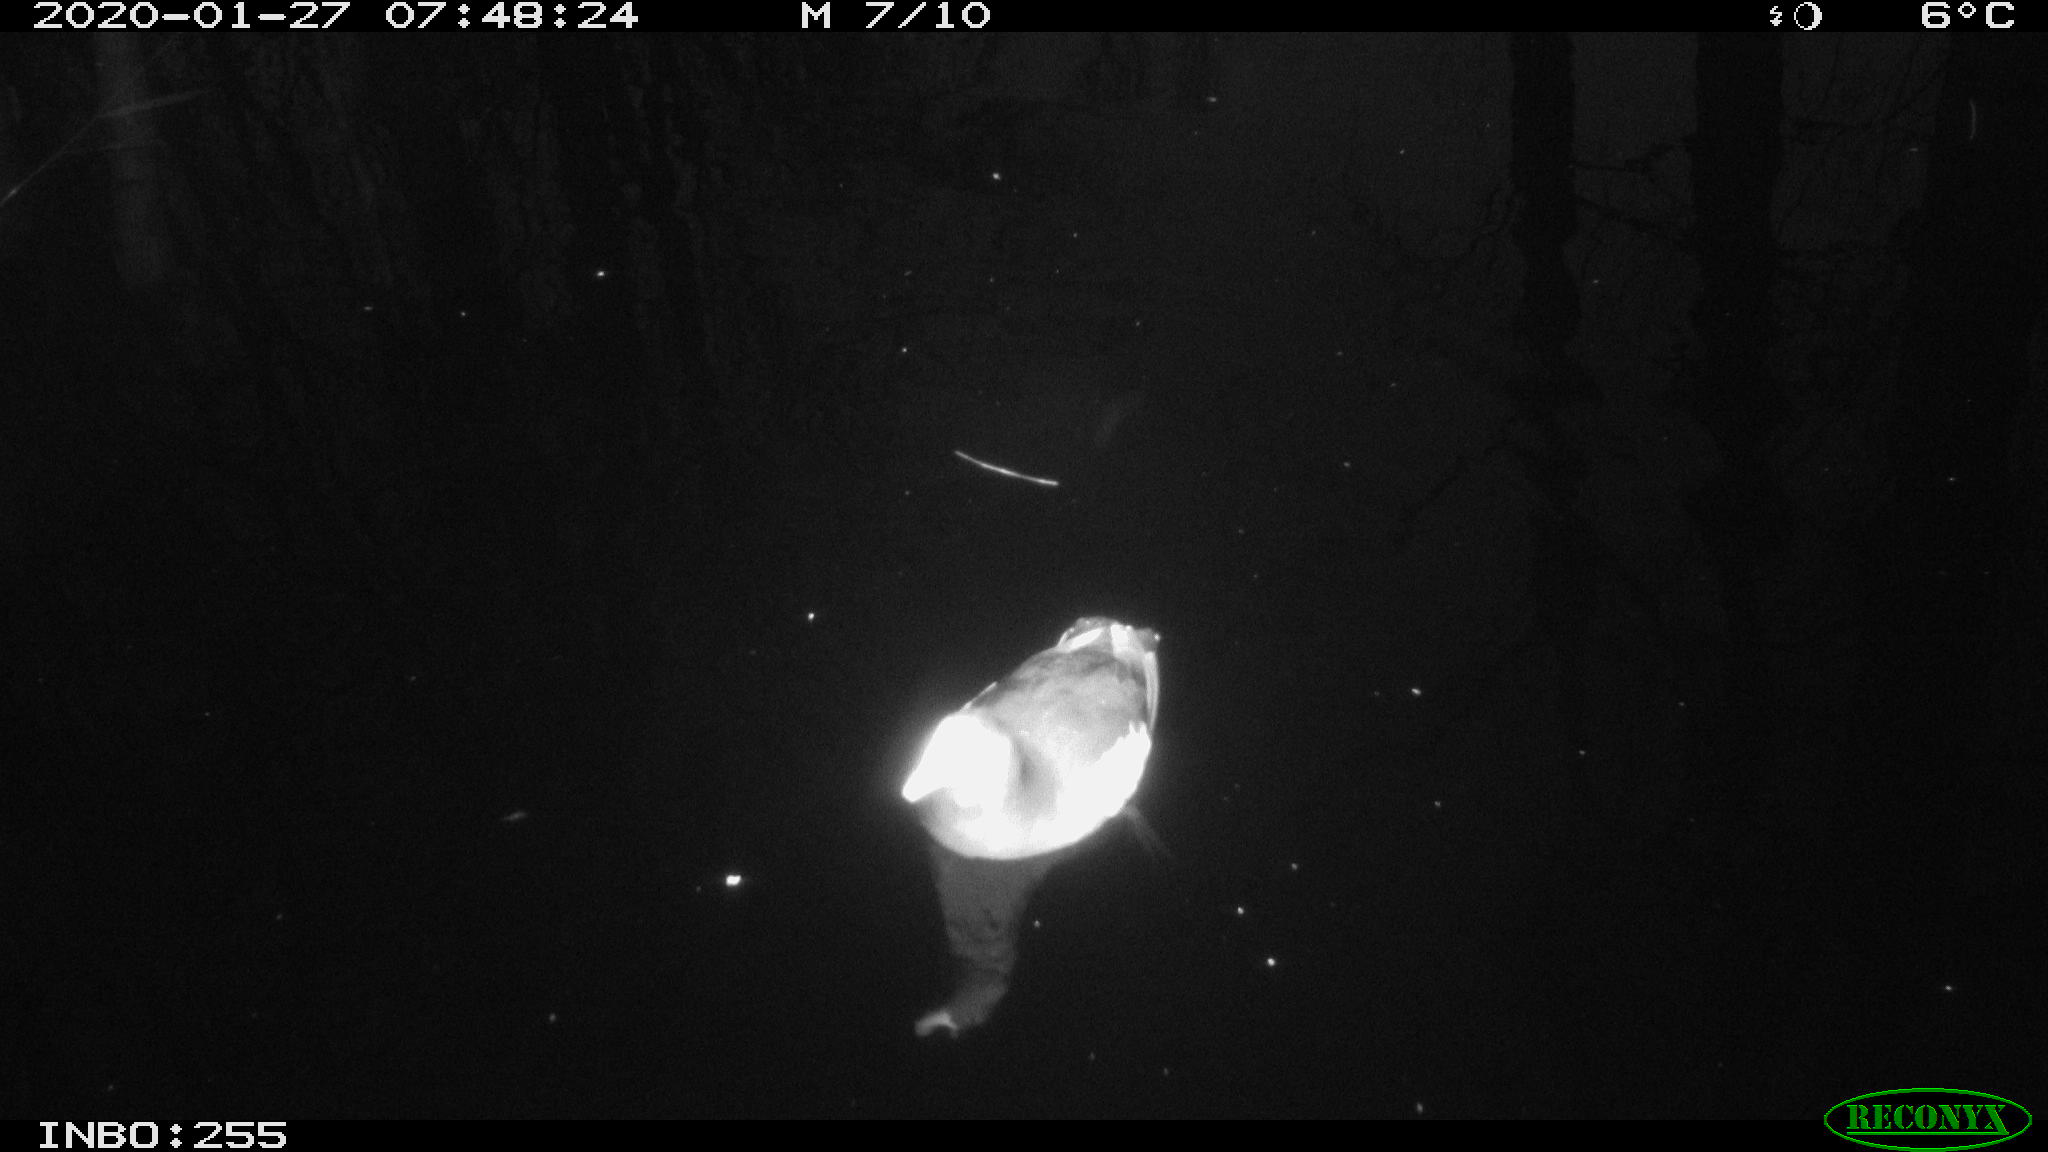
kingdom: Animalia
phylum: Chordata
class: Aves
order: Gruiformes
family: Rallidae
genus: Gallinula
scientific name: Gallinula chloropus
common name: Common moorhen
